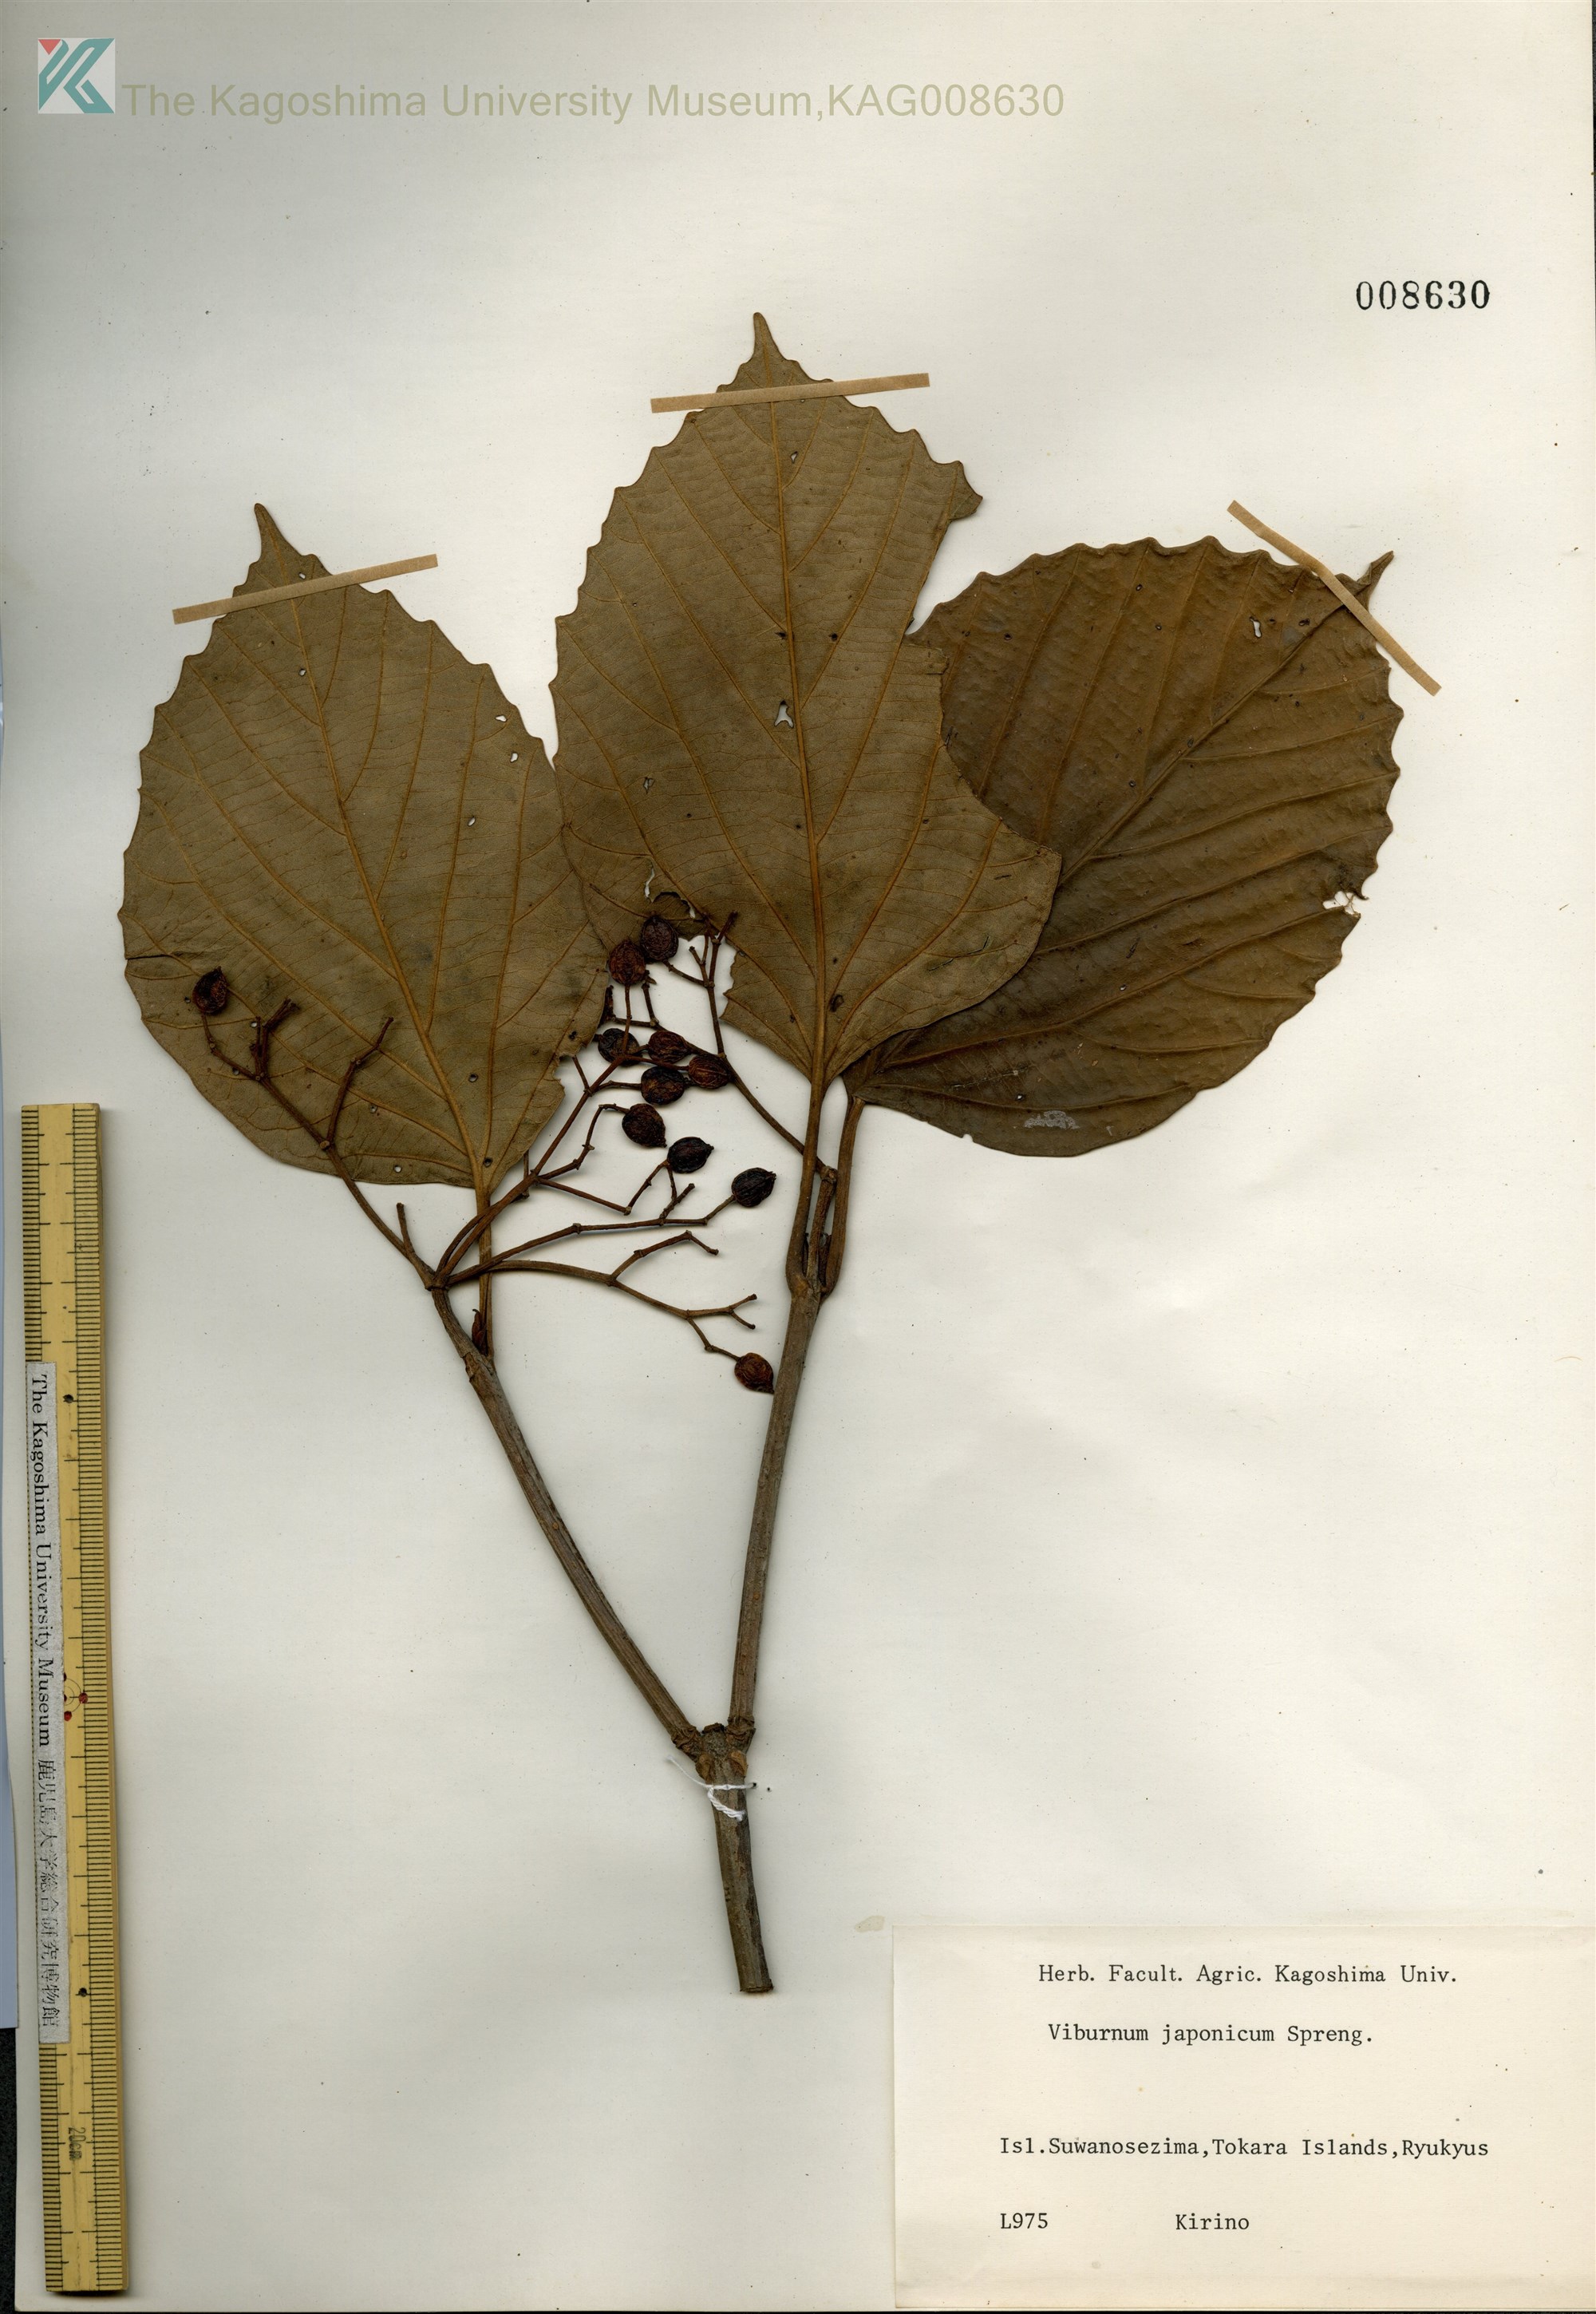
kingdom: Plantae
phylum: Tracheophyta
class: Magnoliopsida
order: Dipsacales
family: Viburnaceae
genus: Viburnum
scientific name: Viburnum japonicum
